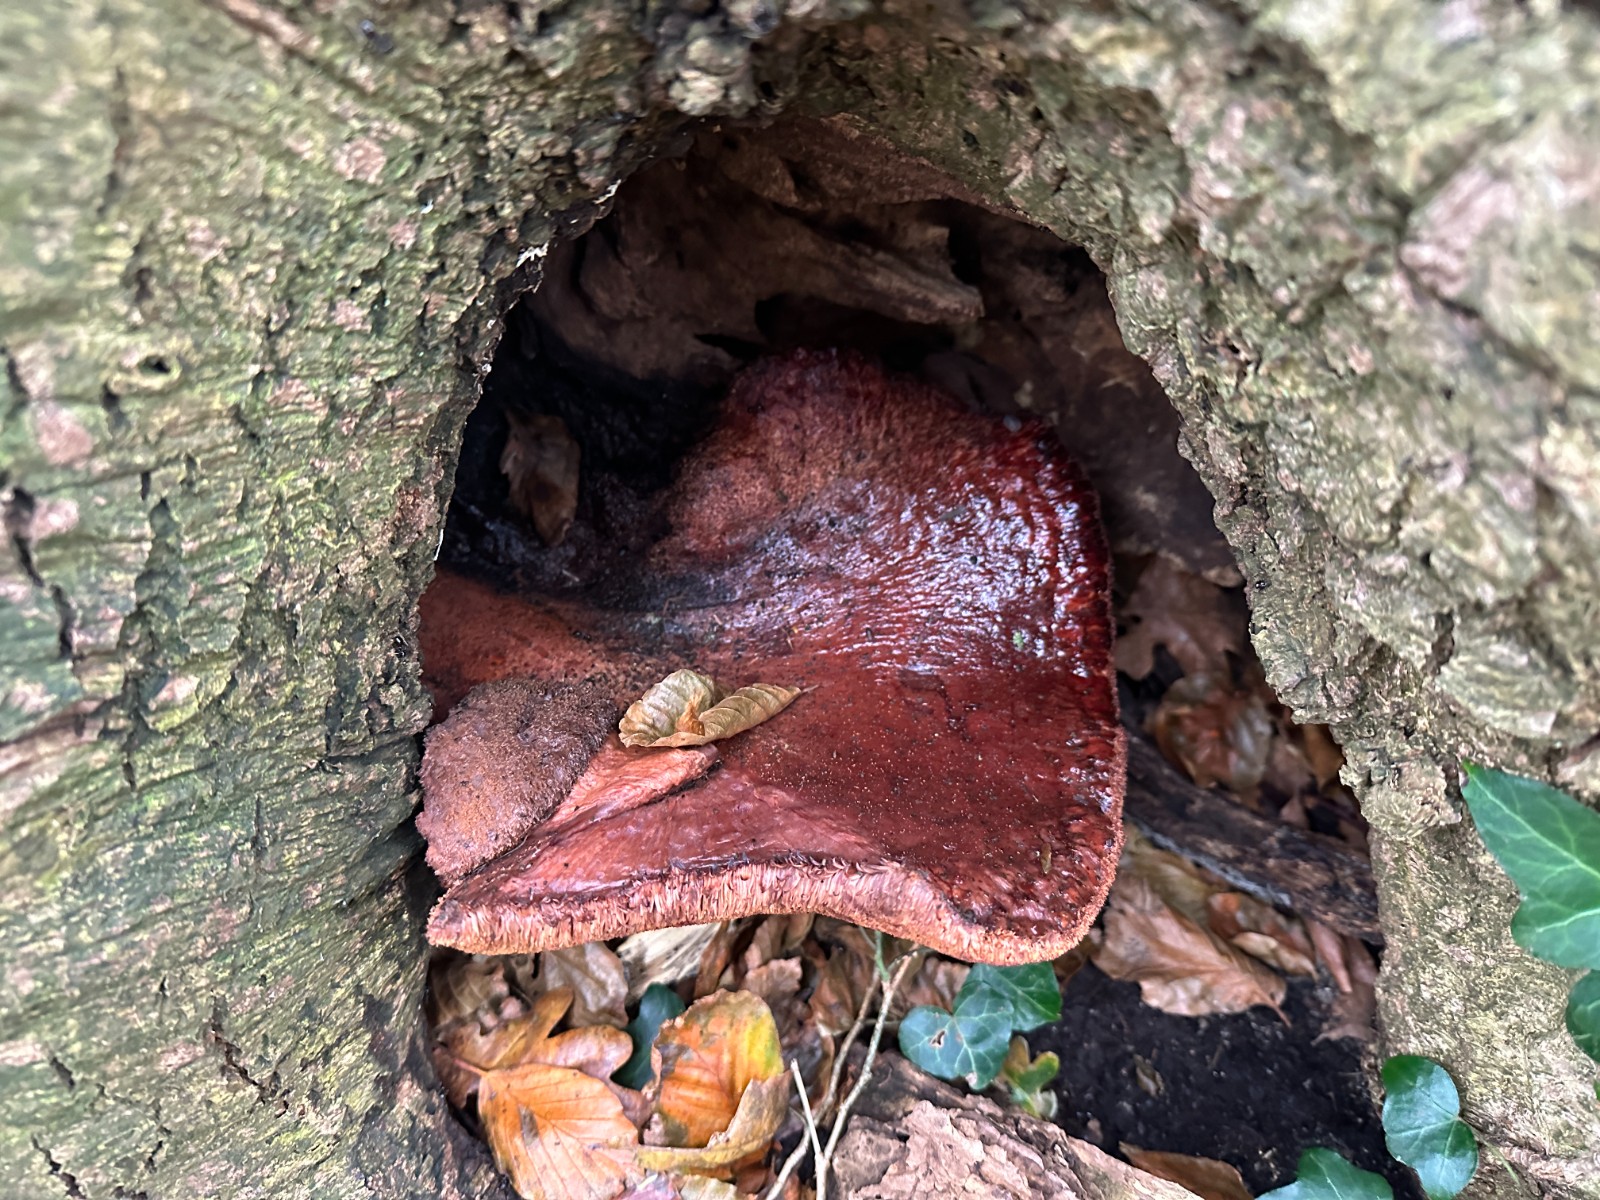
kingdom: Fungi
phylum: Basidiomycota
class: Agaricomycetes
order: Agaricales
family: Fistulinaceae
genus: Fistulina
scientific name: Fistulina hepatica
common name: oksetunge
